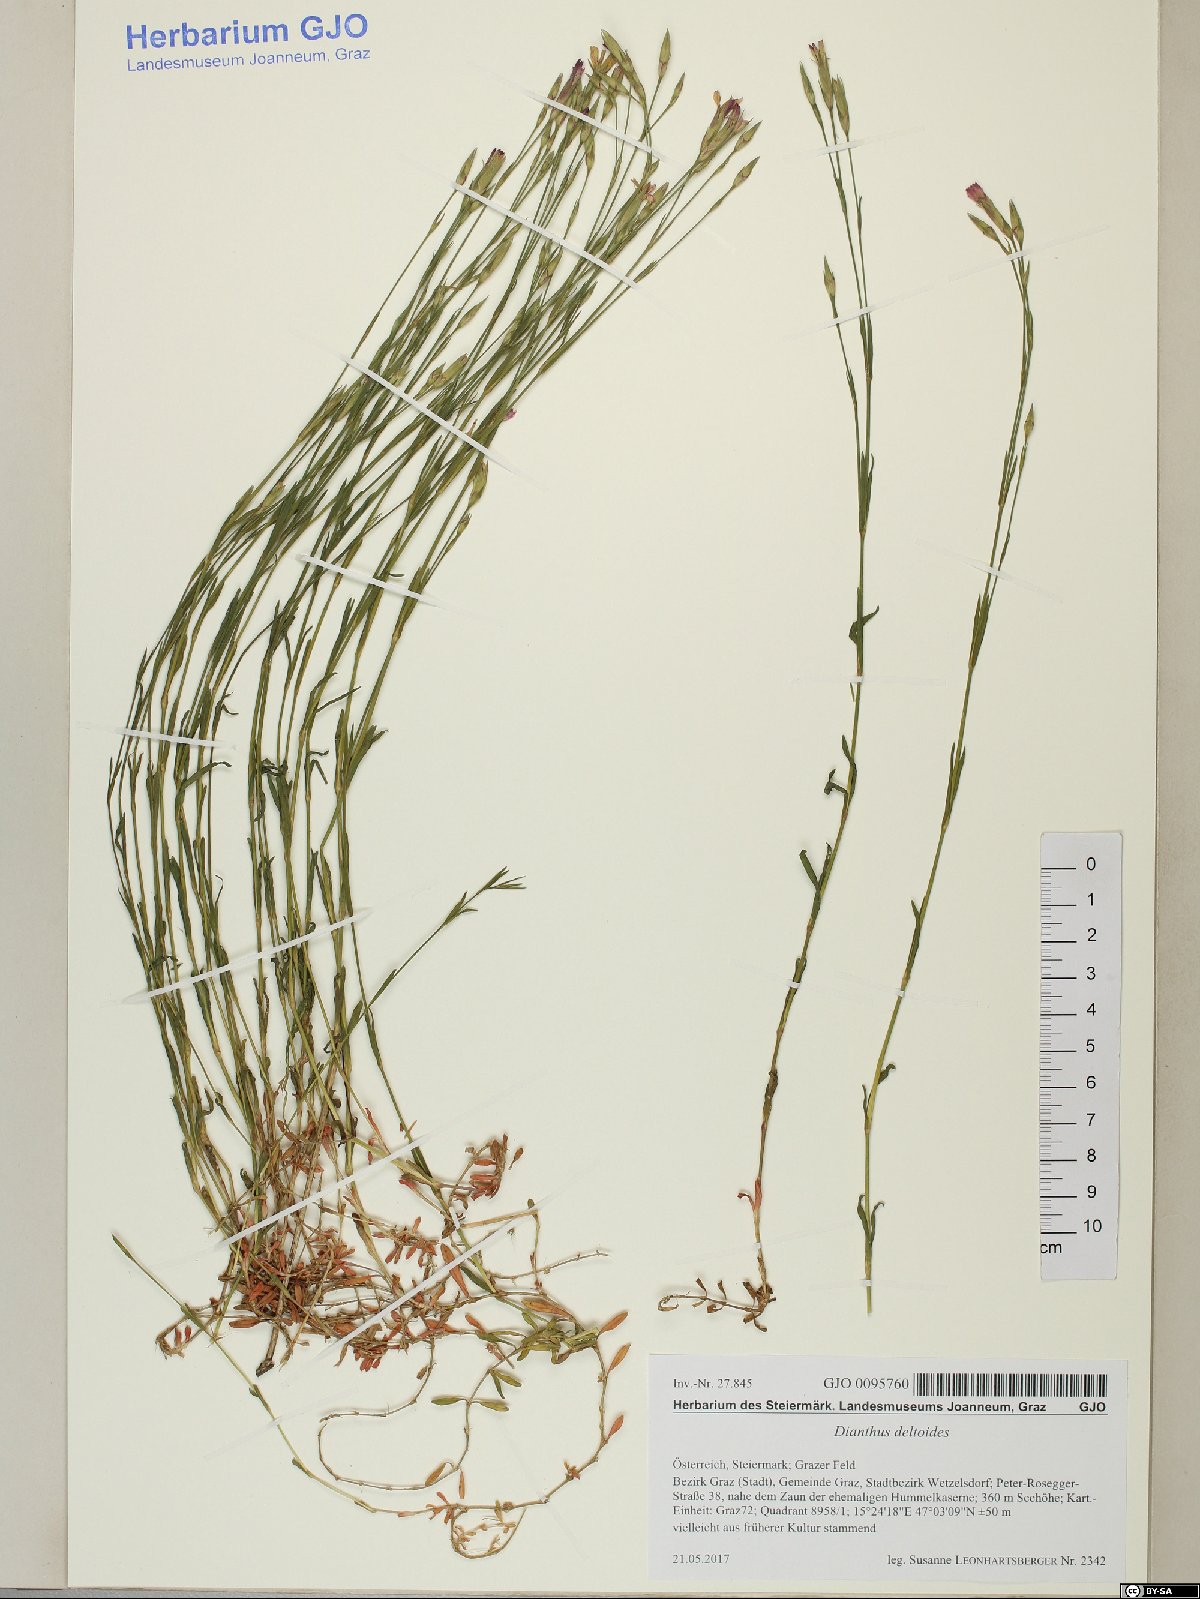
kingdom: Plantae
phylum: Tracheophyta
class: Magnoliopsida
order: Caryophyllales
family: Caryophyllaceae
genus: Dianthus
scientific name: Dianthus deltoides
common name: Maiden pink
